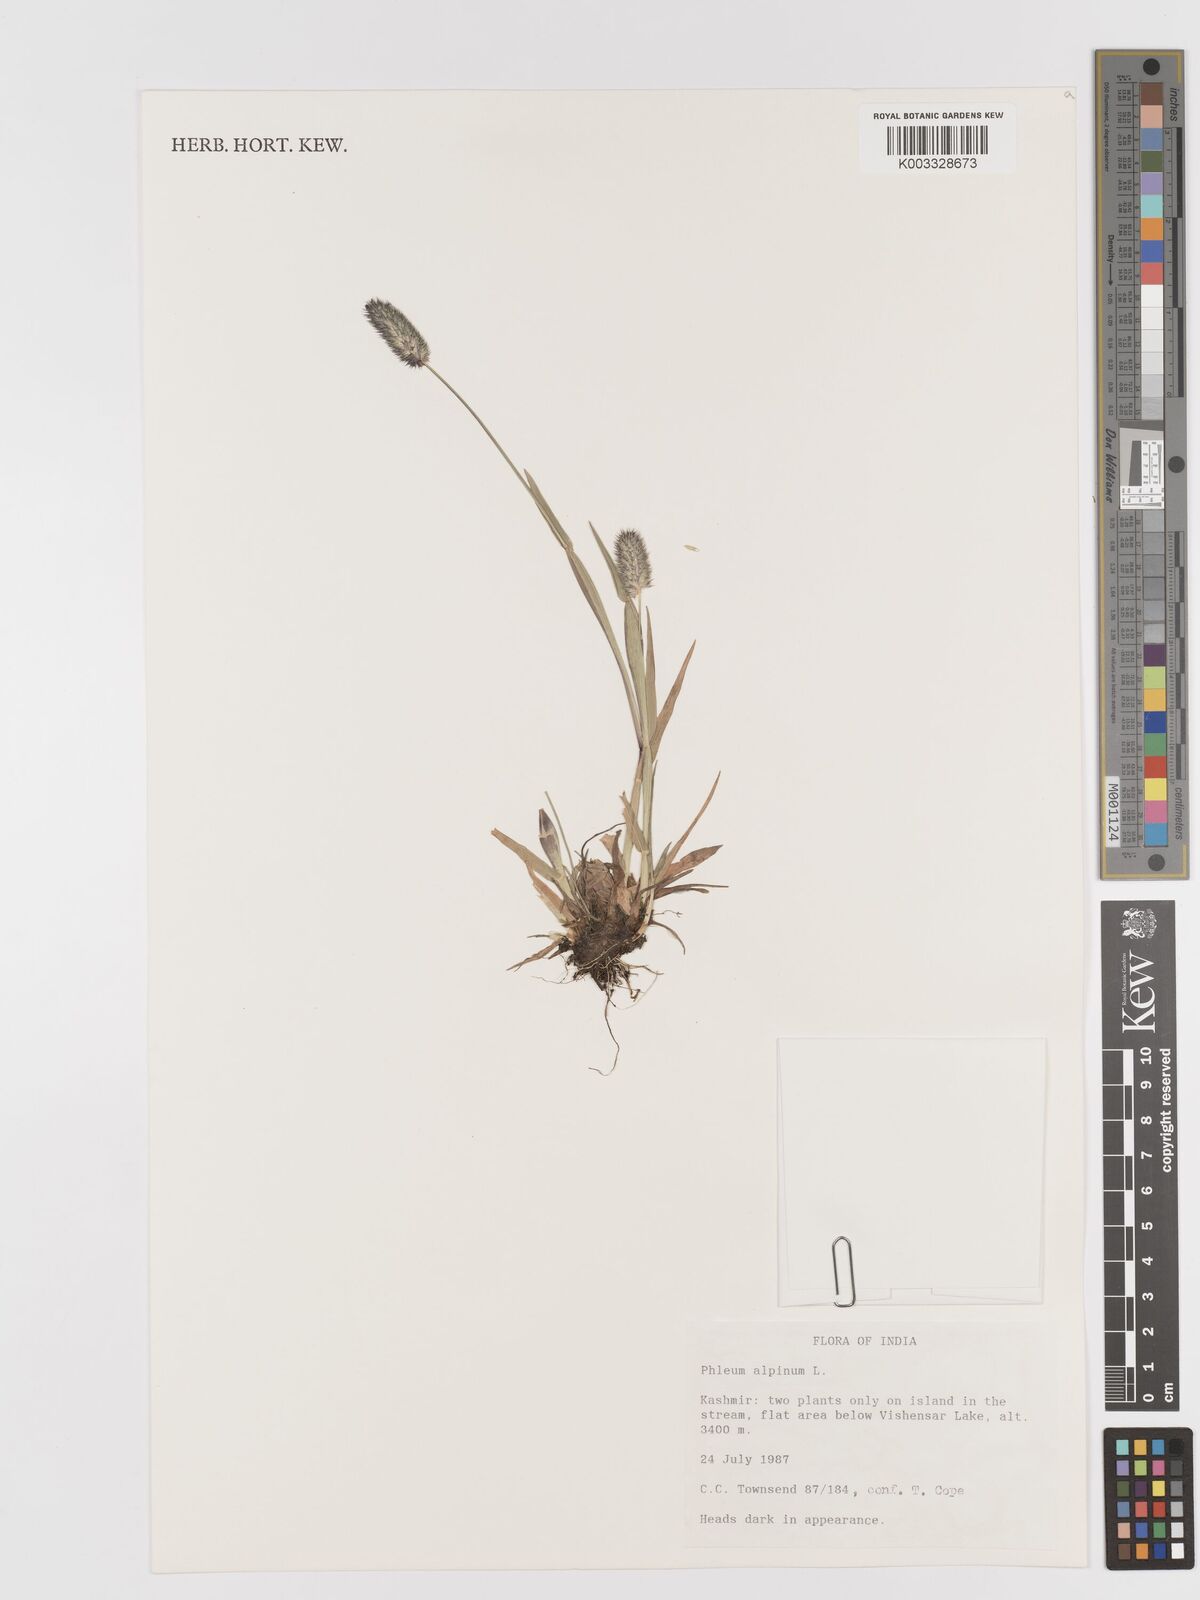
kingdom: Plantae
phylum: Tracheophyta
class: Liliopsida
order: Poales
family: Poaceae
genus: Phleum
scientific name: Phleum alpinum
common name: Alpine cat's-tail
